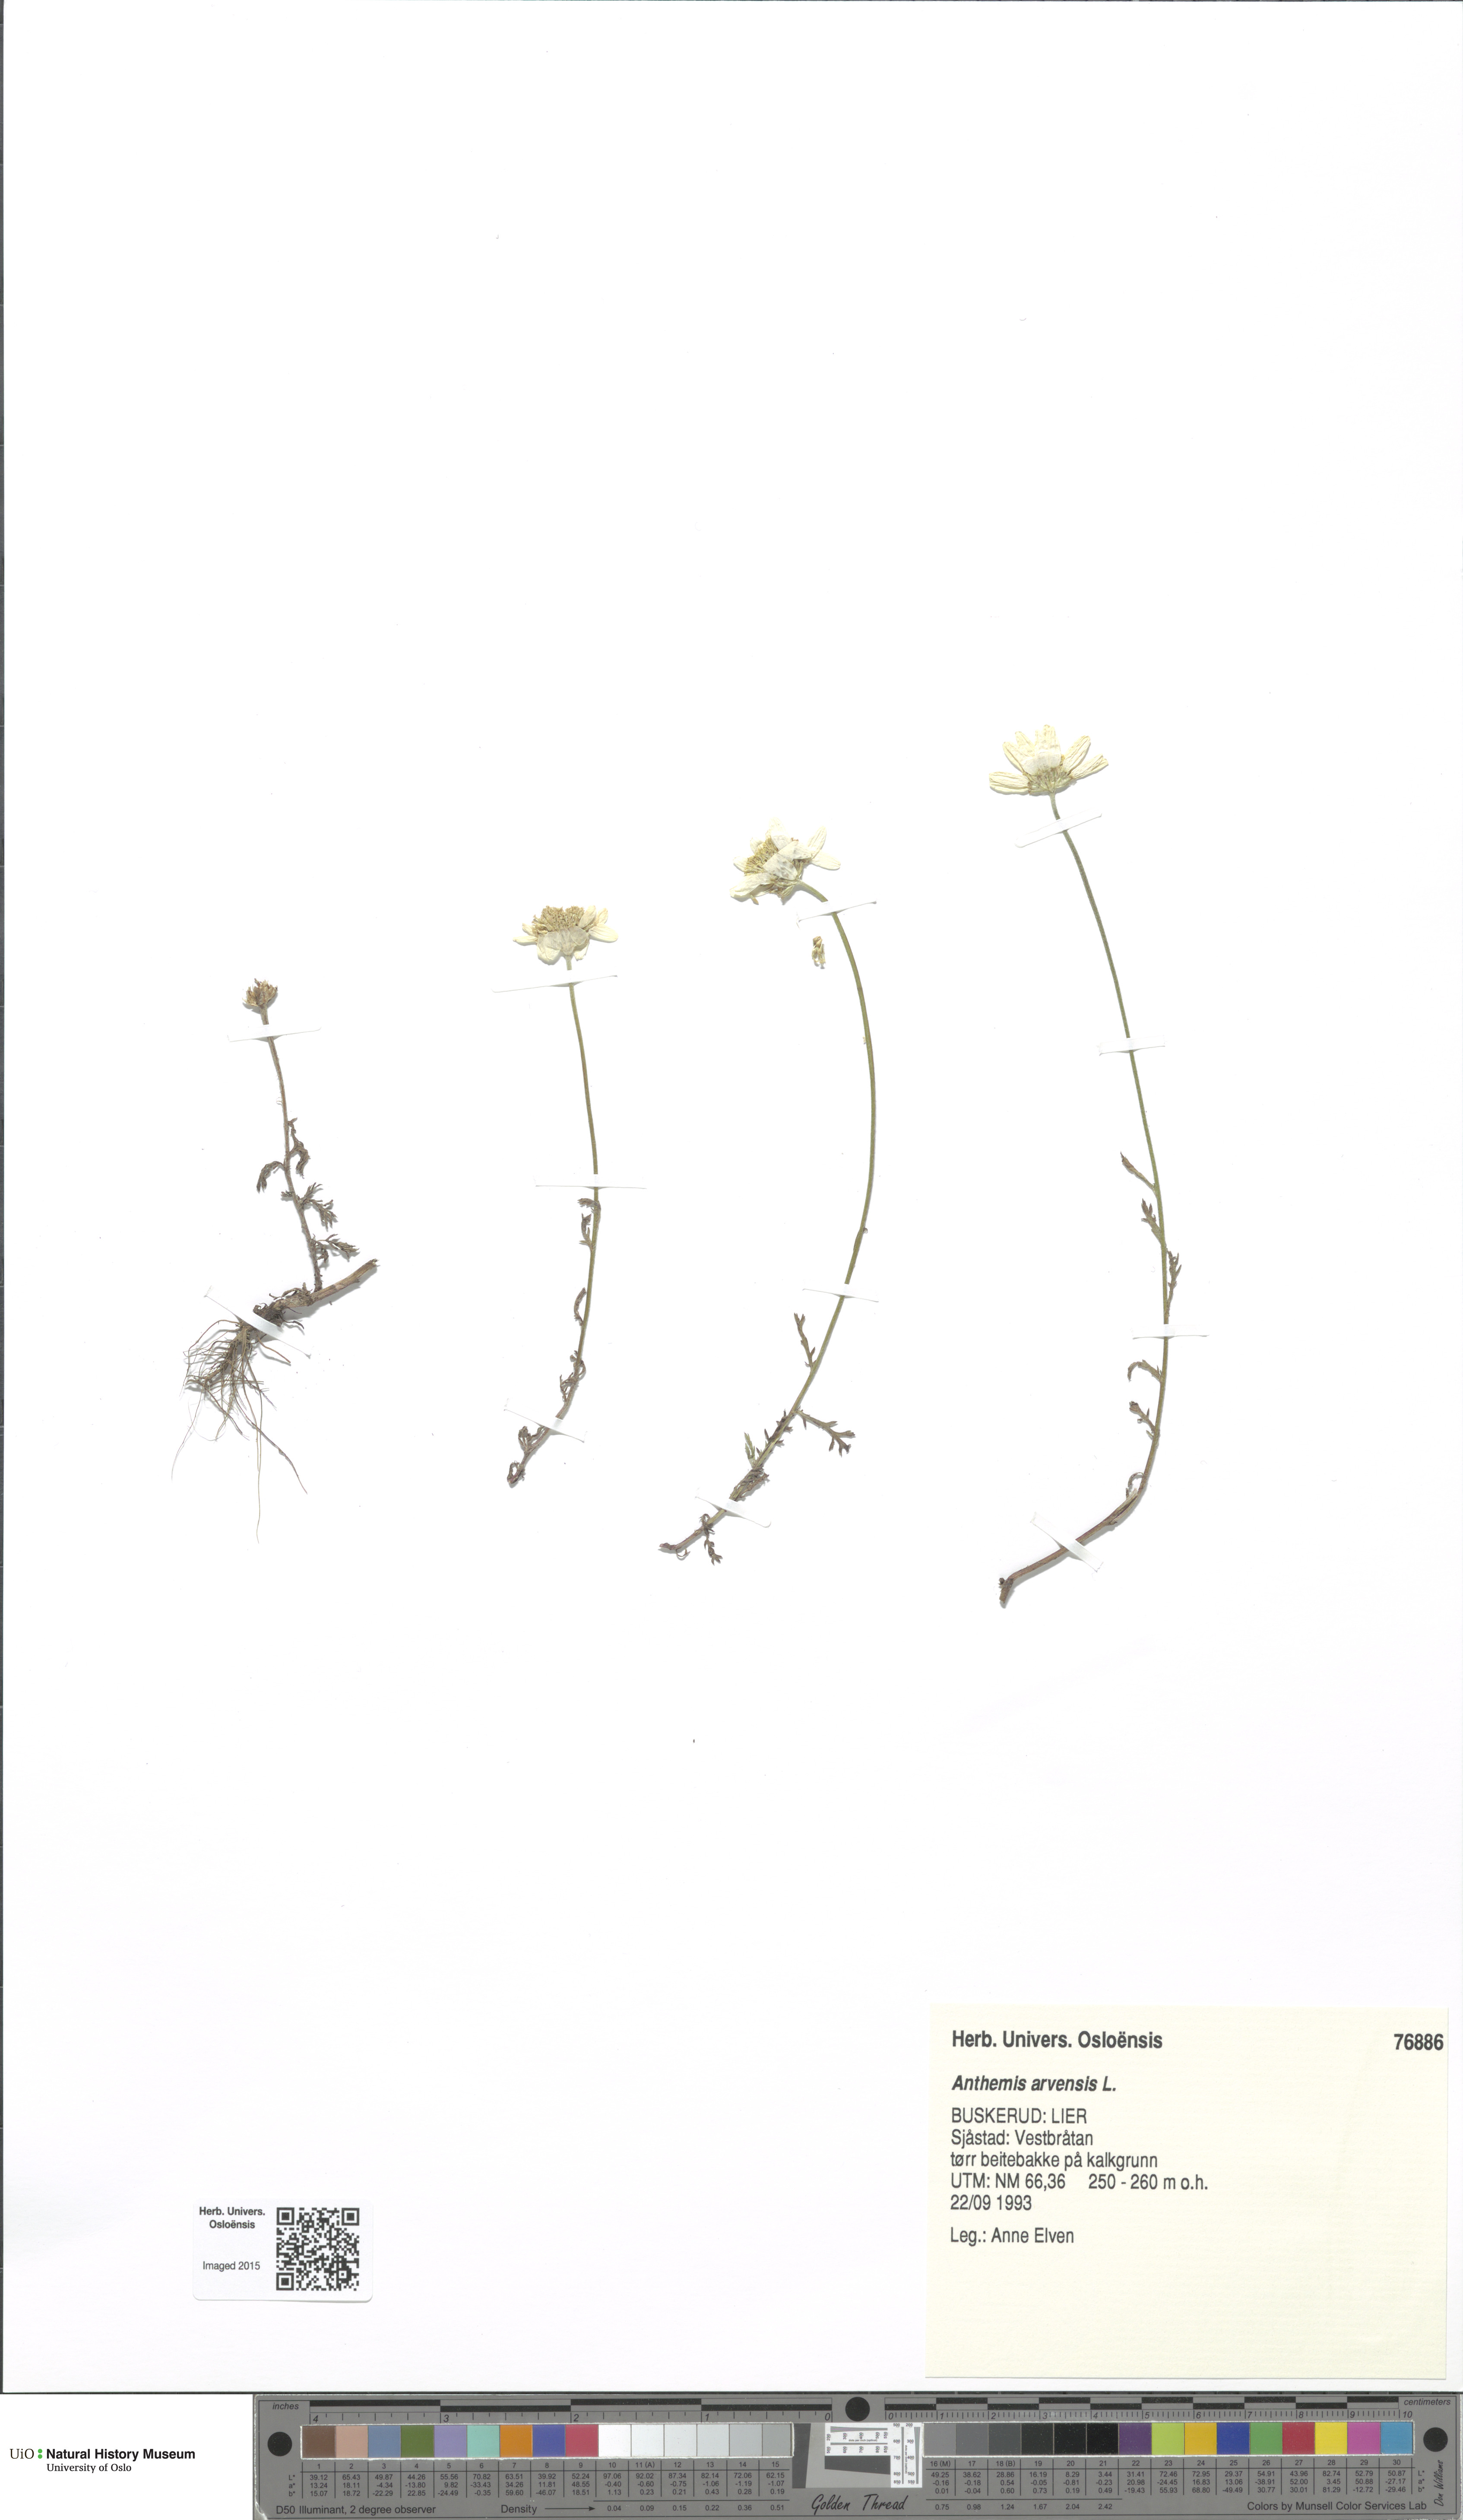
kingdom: Plantae
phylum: Tracheophyta
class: Magnoliopsida
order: Asterales
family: Asteraceae
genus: Anthemis
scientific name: Anthemis arvensis
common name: Corn chamomile
